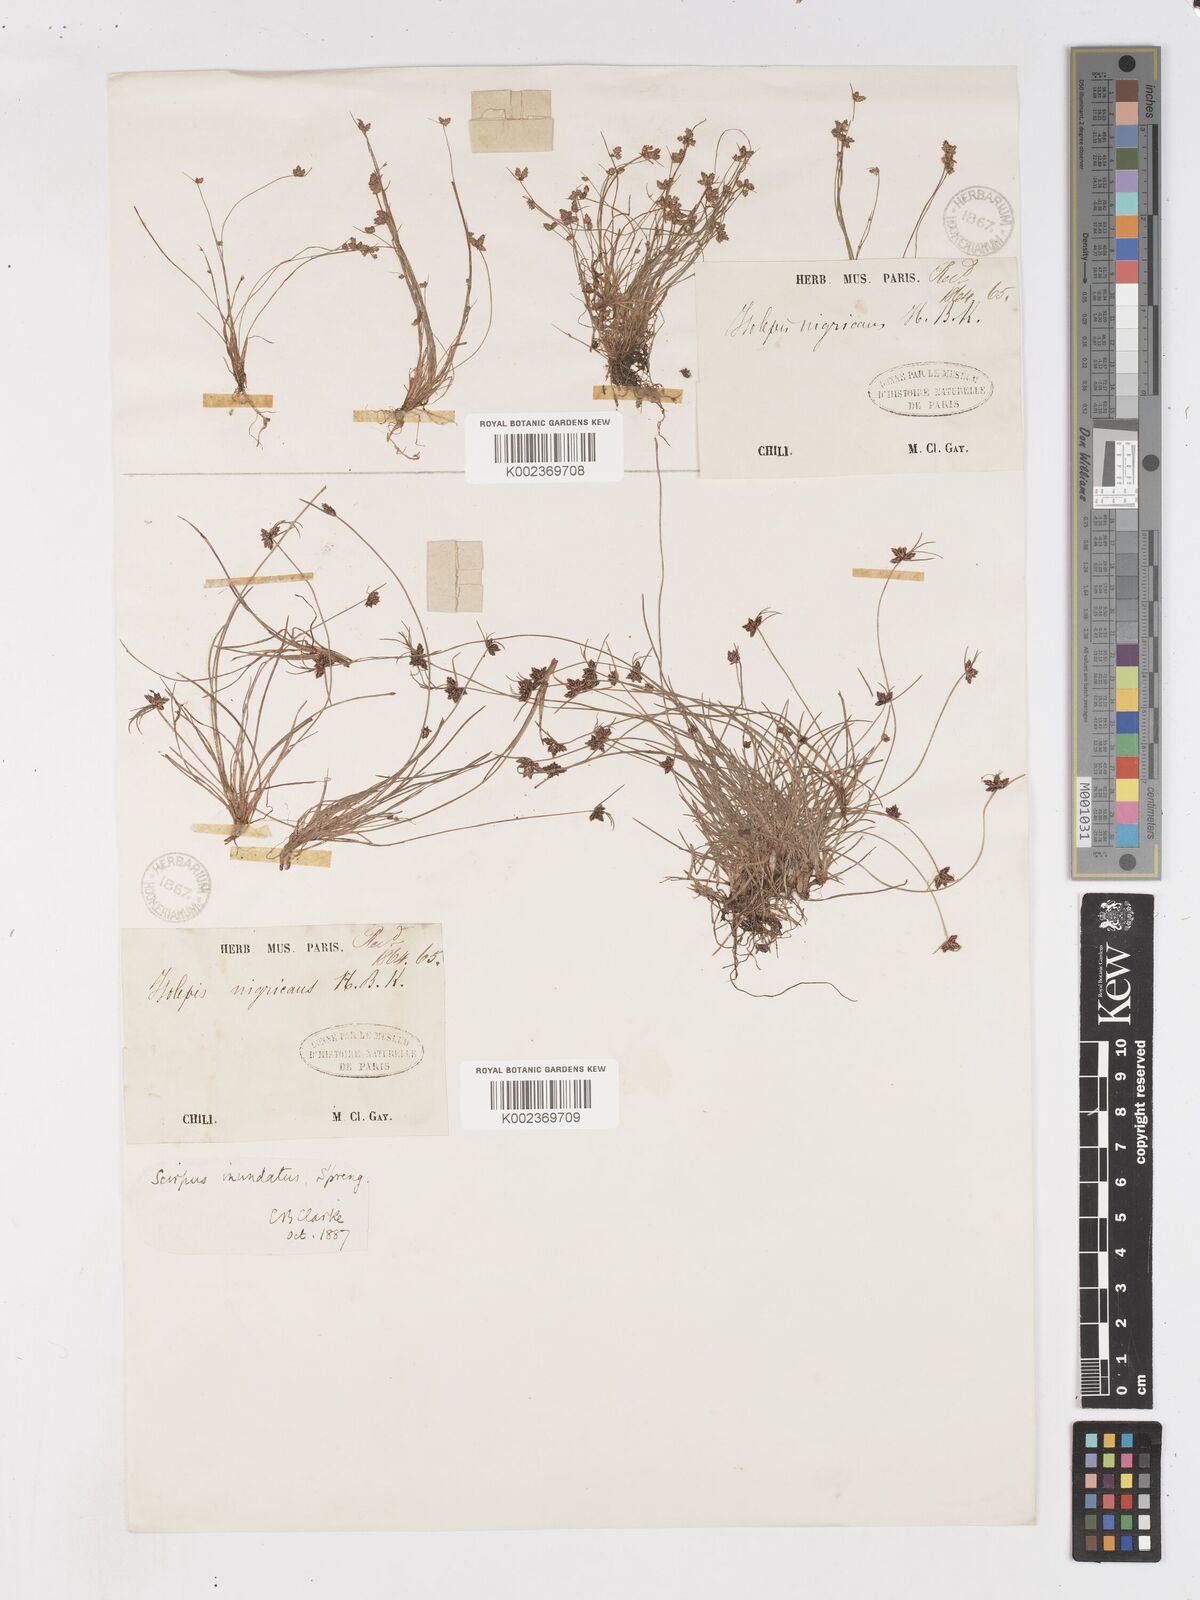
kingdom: Plantae
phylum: Tracheophyta
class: Liliopsida
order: Poales
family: Cyperaceae
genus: Isolepis
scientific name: Isolepis inundata
